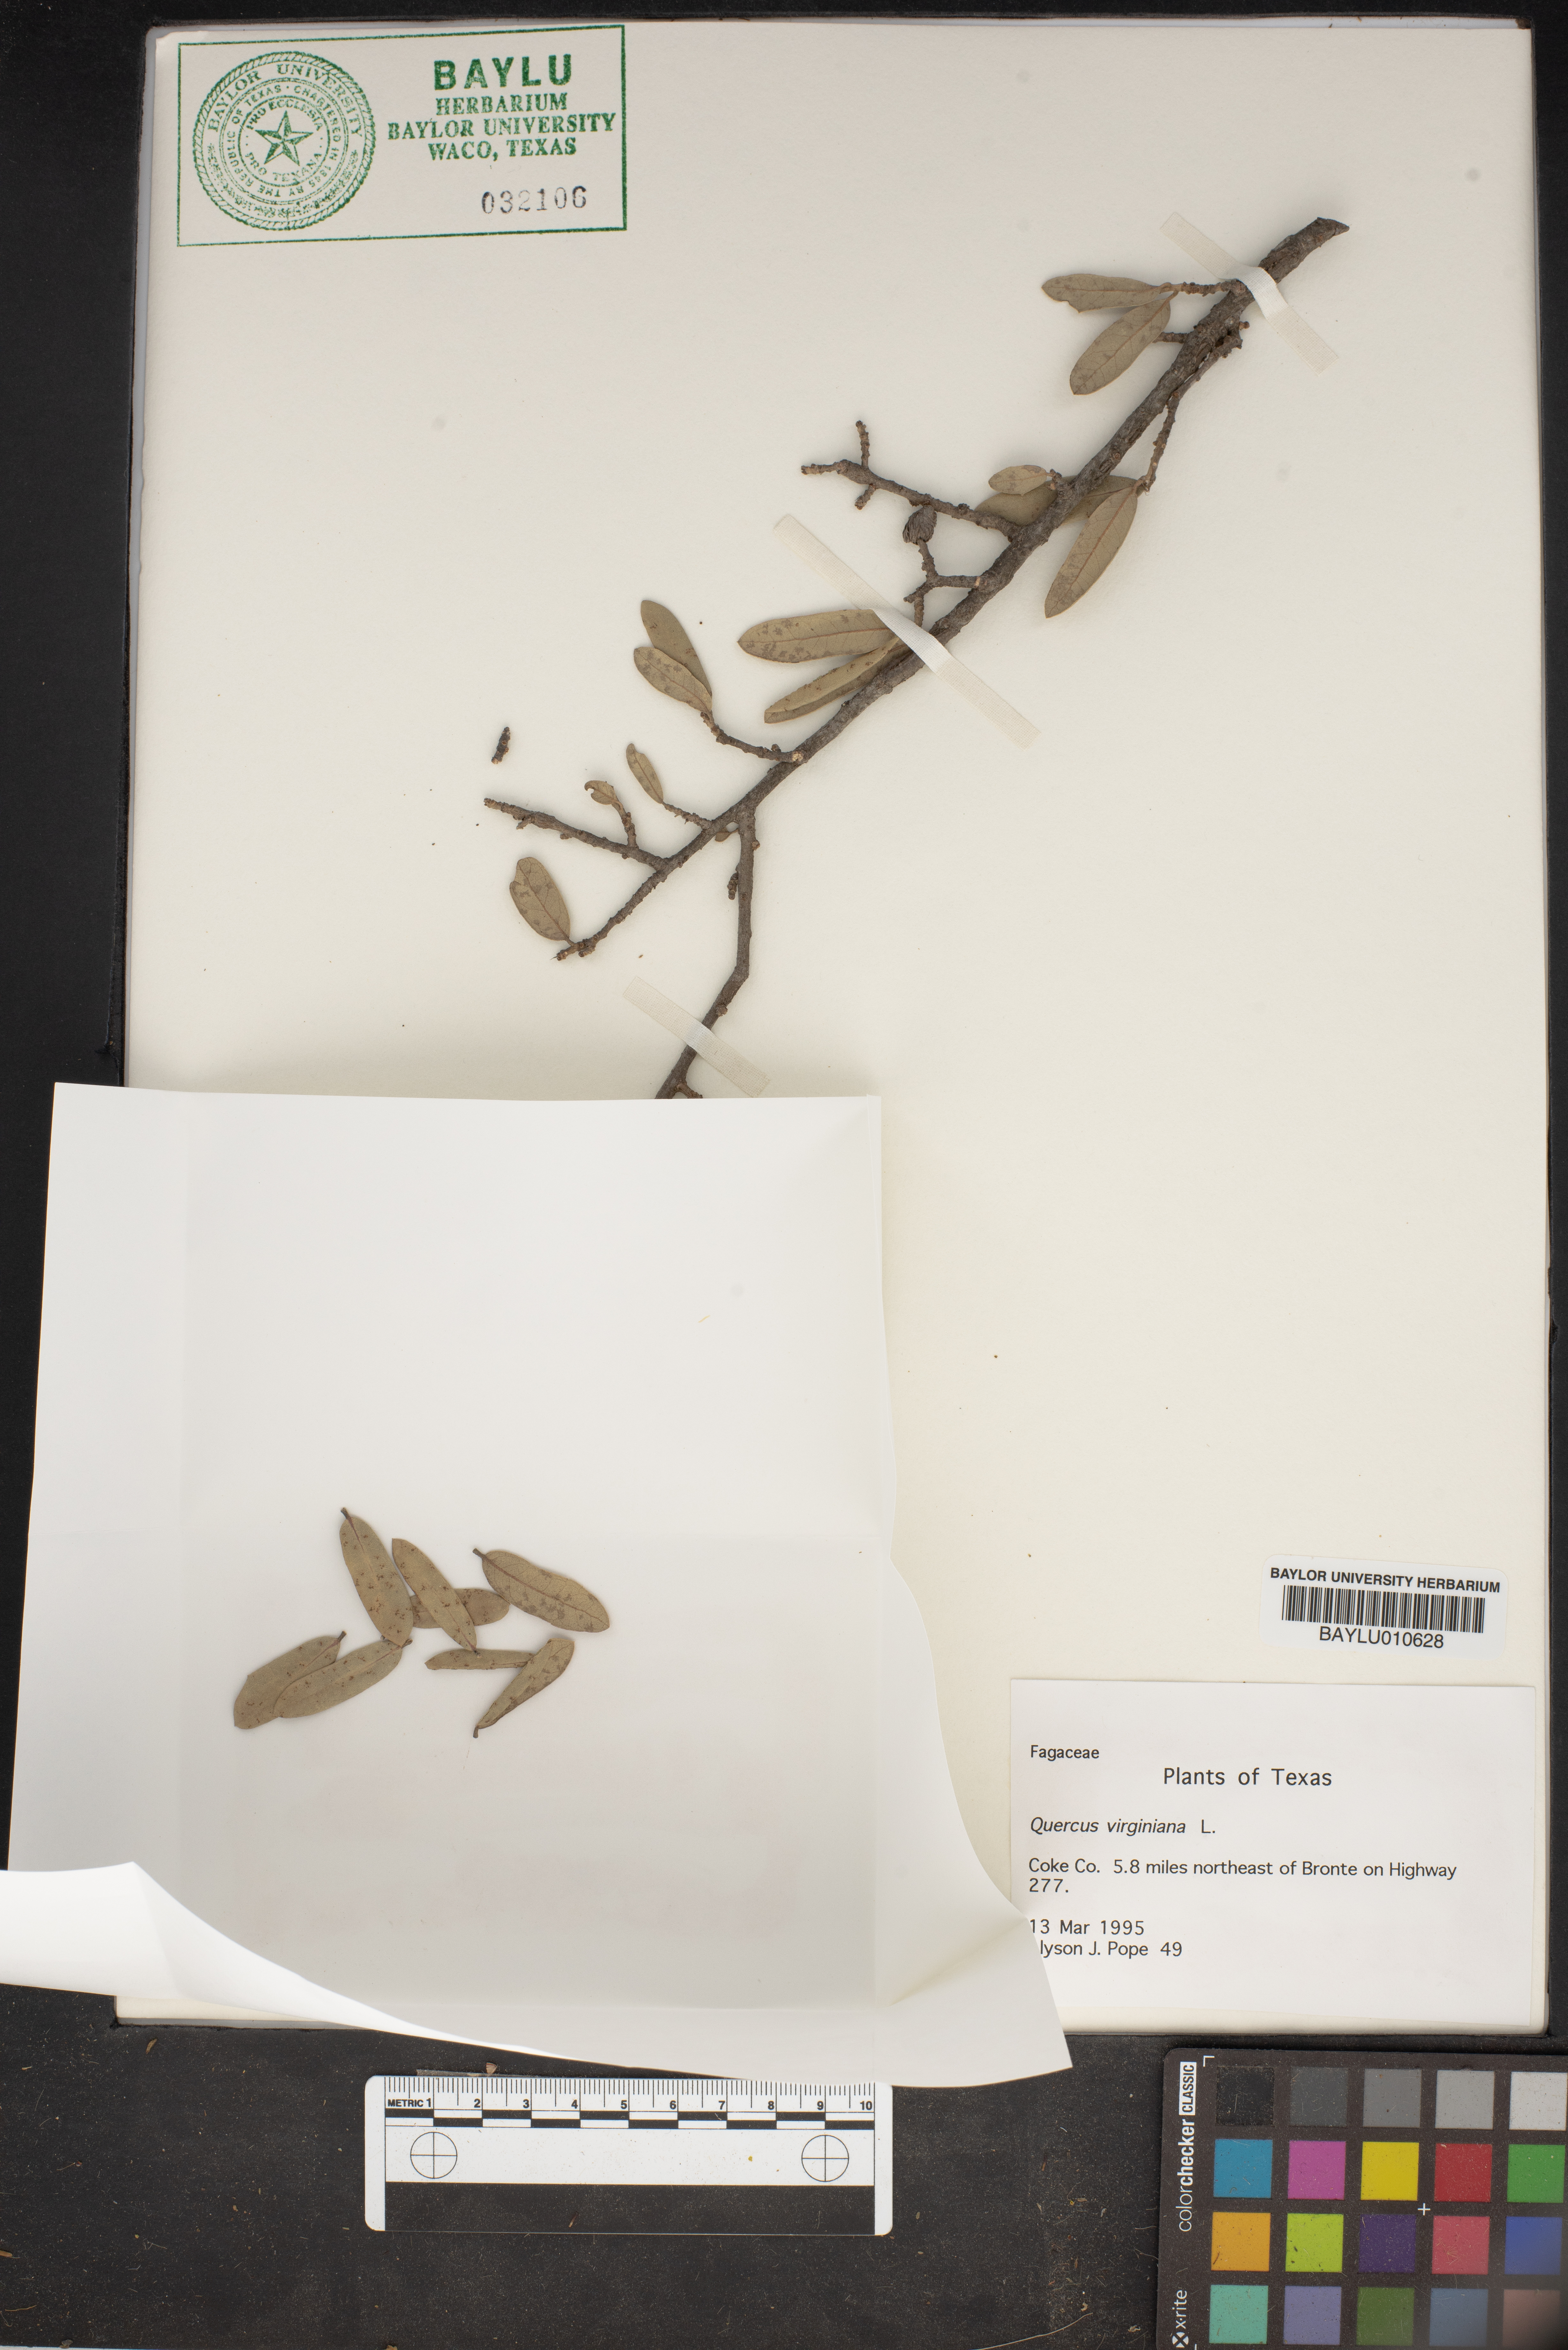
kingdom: Plantae
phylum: Tracheophyta
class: Magnoliopsida
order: Fagales
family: Fagaceae
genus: Quercus
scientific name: Quercus virginiana
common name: Southern live oak
